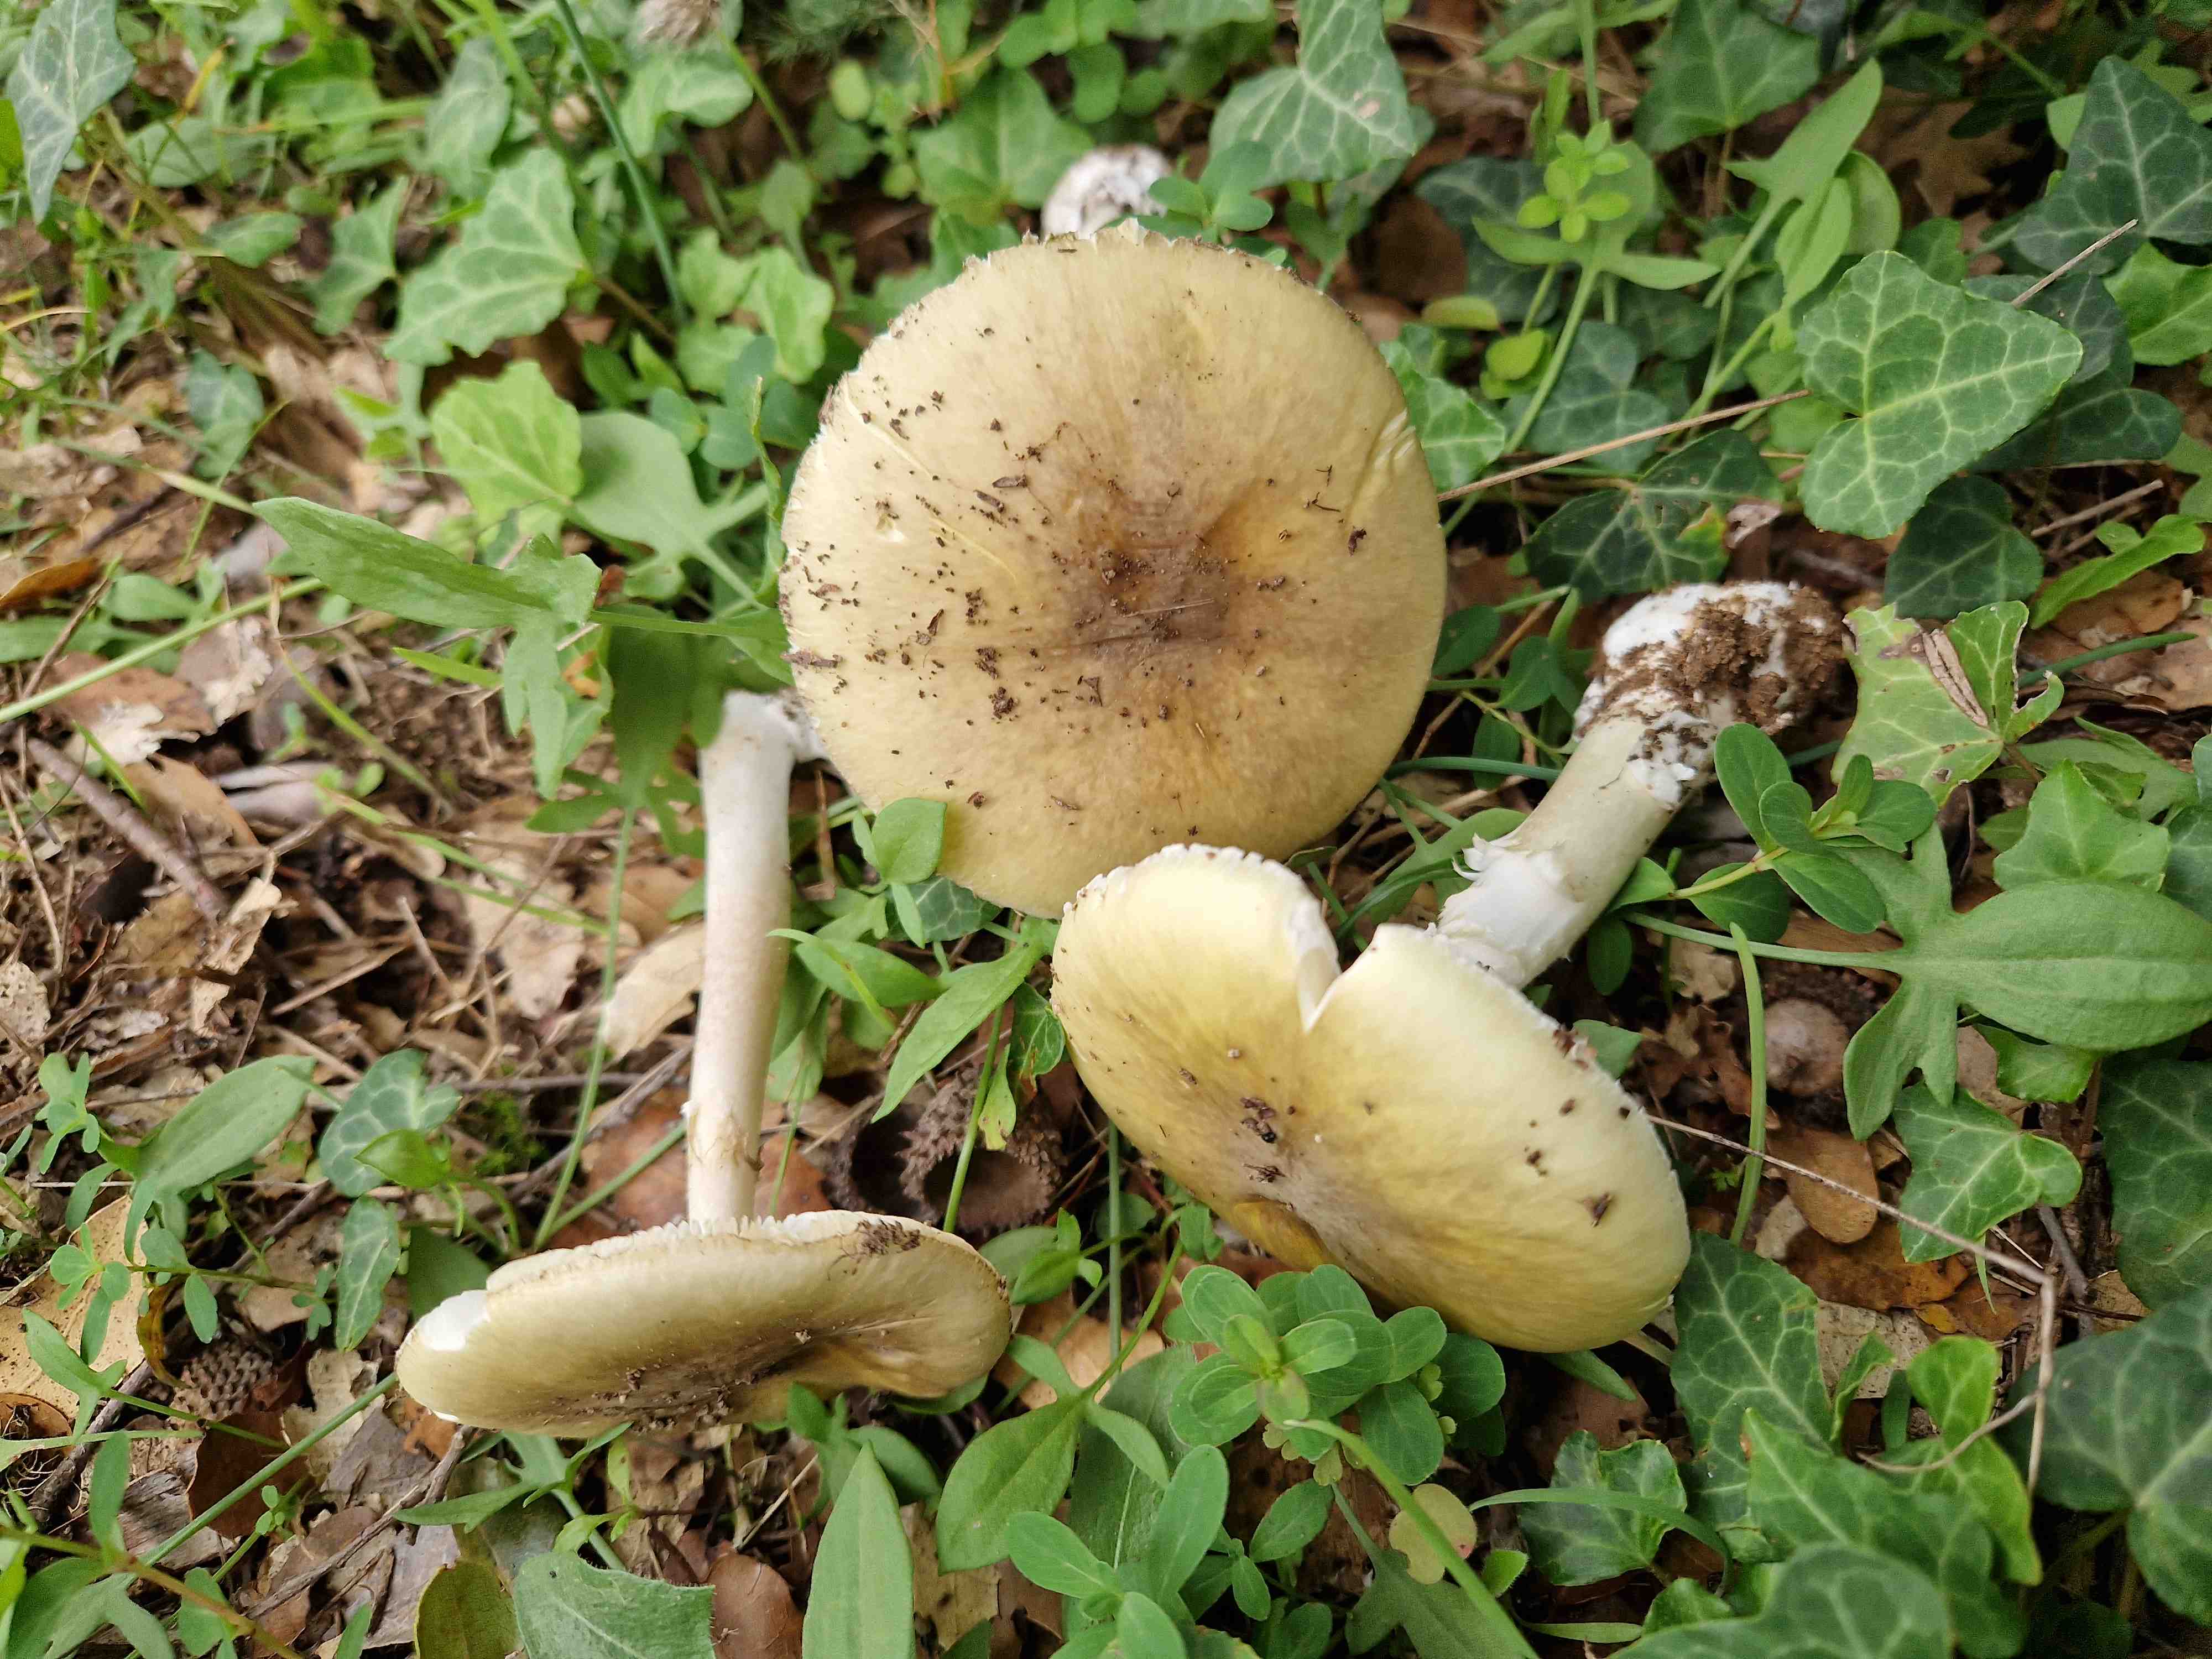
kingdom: Fungi
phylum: Basidiomycota
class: Agaricomycetes
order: Agaricales
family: Amanitaceae
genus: Amanita
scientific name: Amanita phalloides
